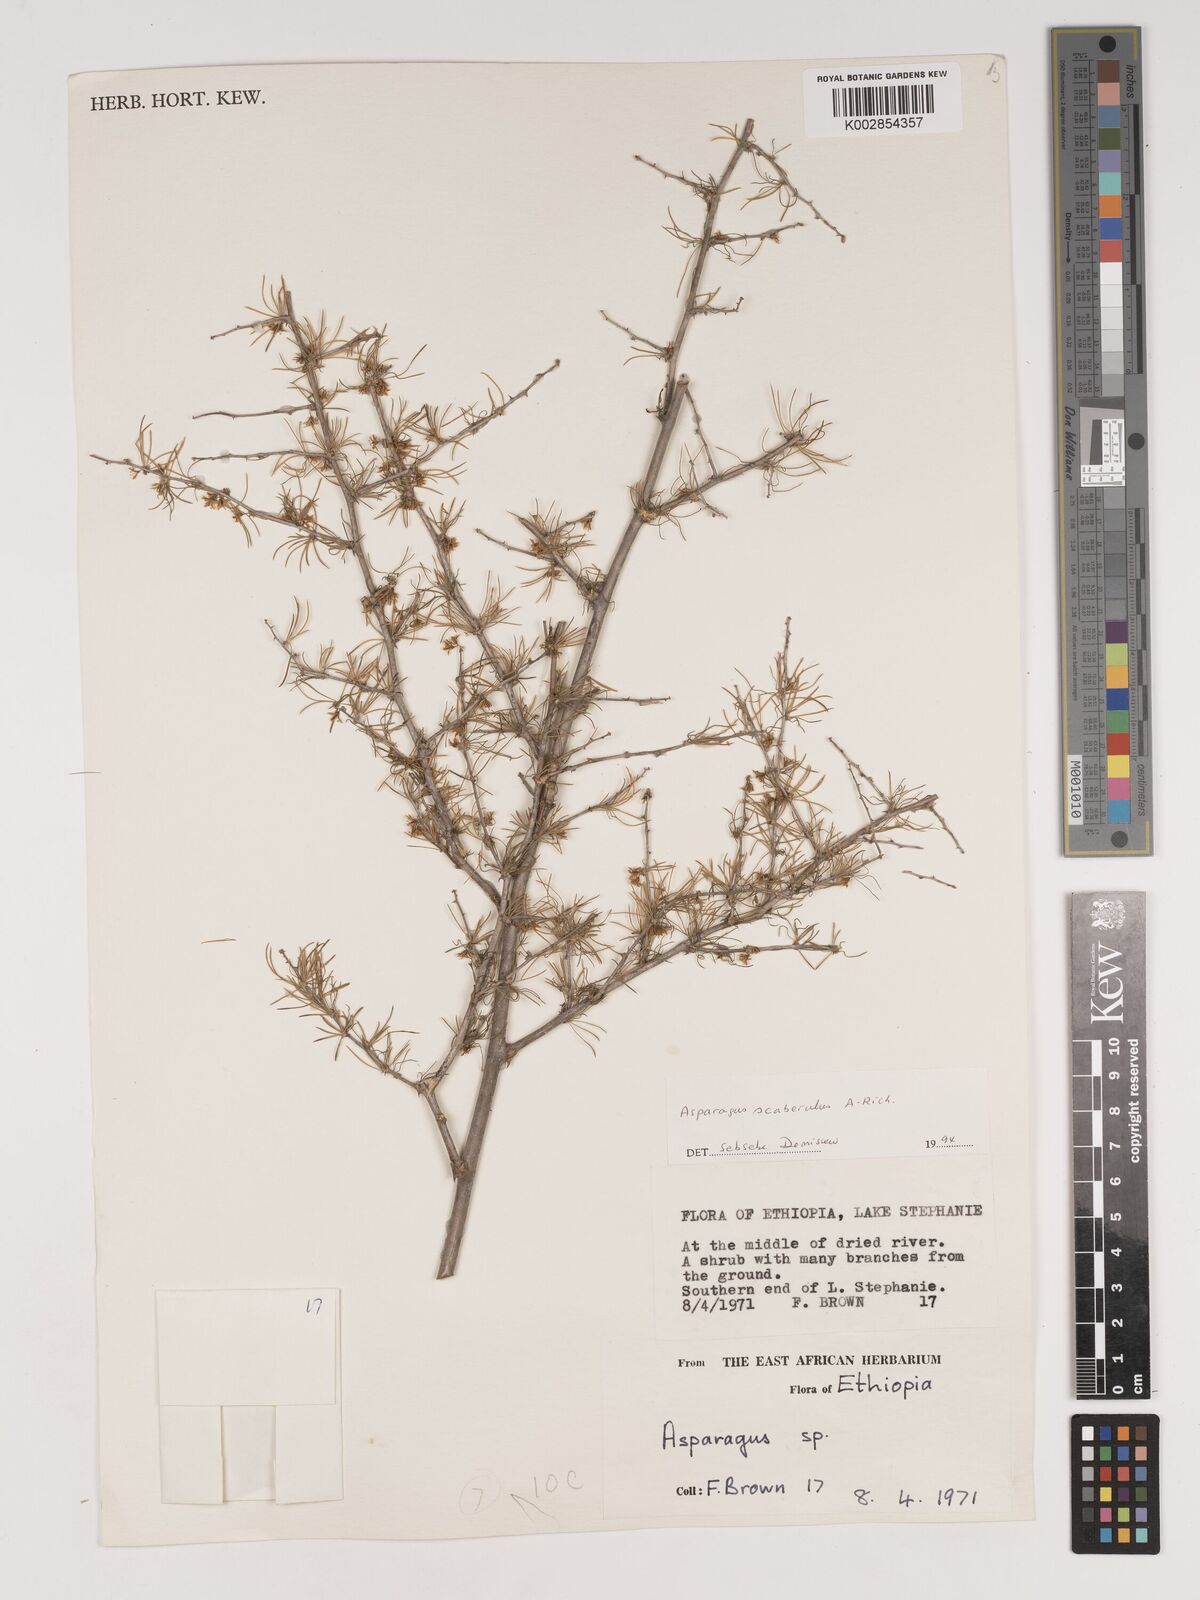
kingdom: Plantae
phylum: Tracheophyta
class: Liliopsida
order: Asparagales
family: Asparagaceae
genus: Asparagus
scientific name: Asparagus africanus
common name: Asparagus-fern
